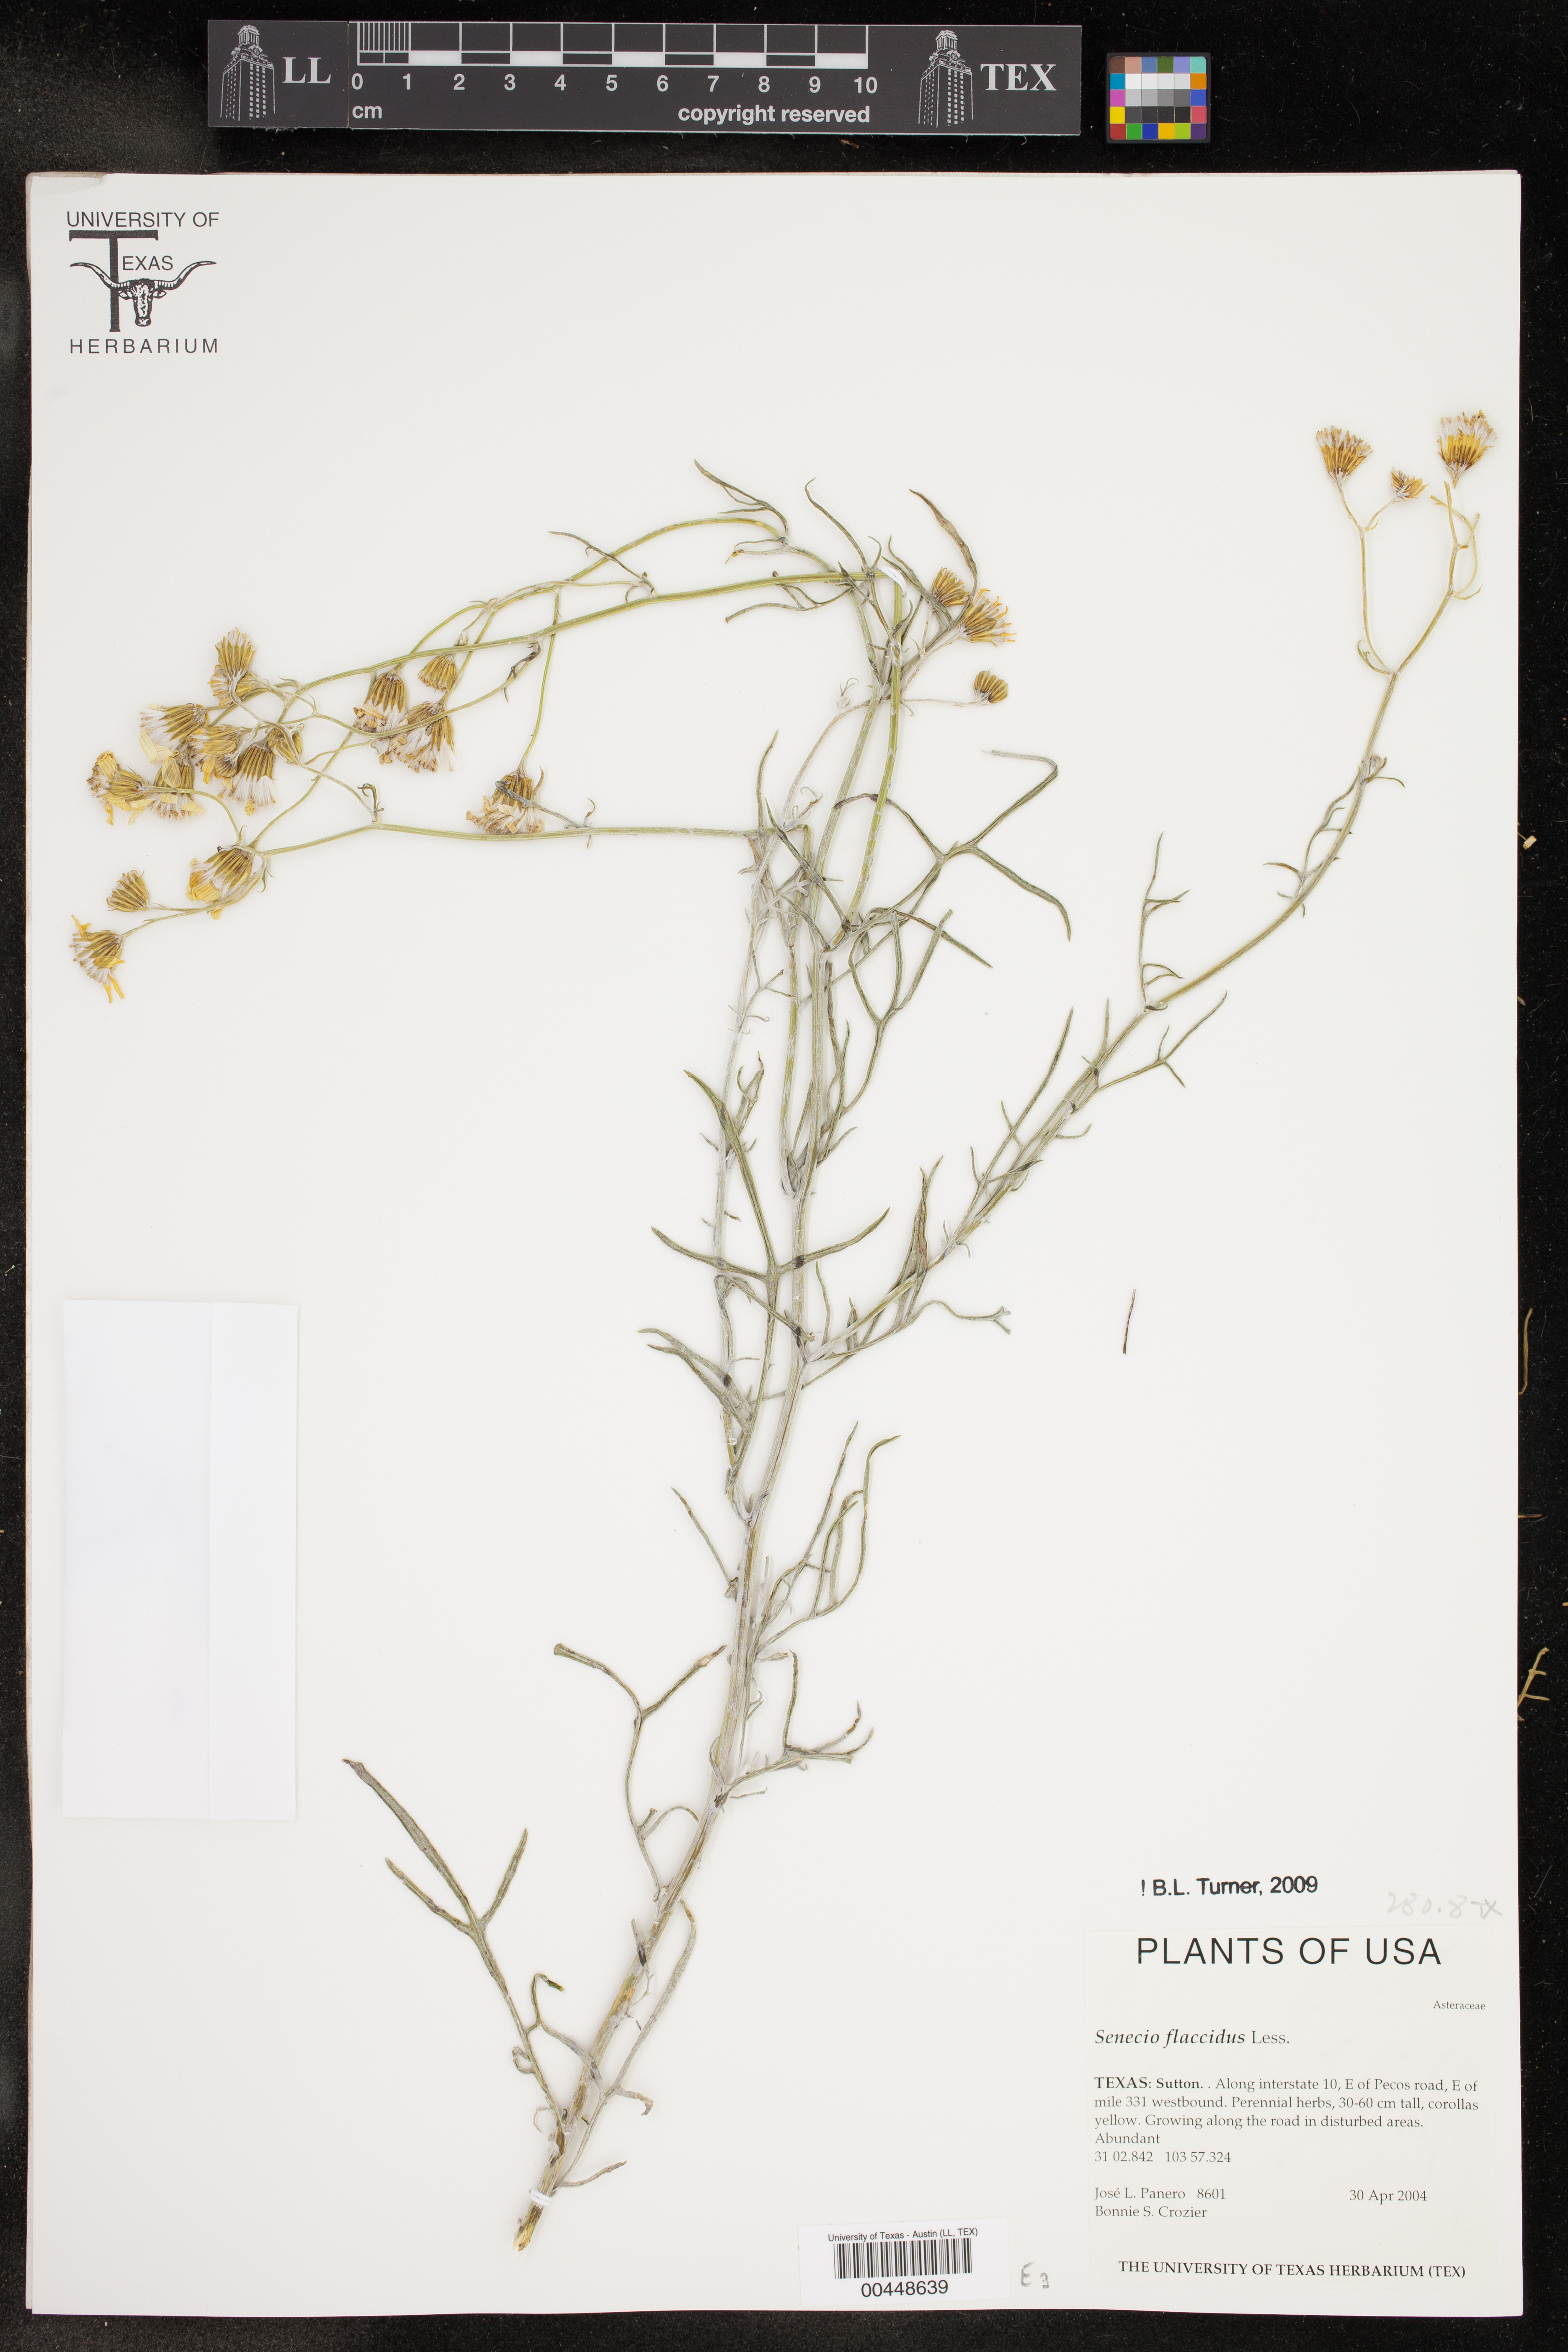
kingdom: Plantae
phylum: Tracheophyta
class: Magnoliopsida
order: Asterales
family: Asteraceae
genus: Senecio
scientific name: Senecio flaccidus
